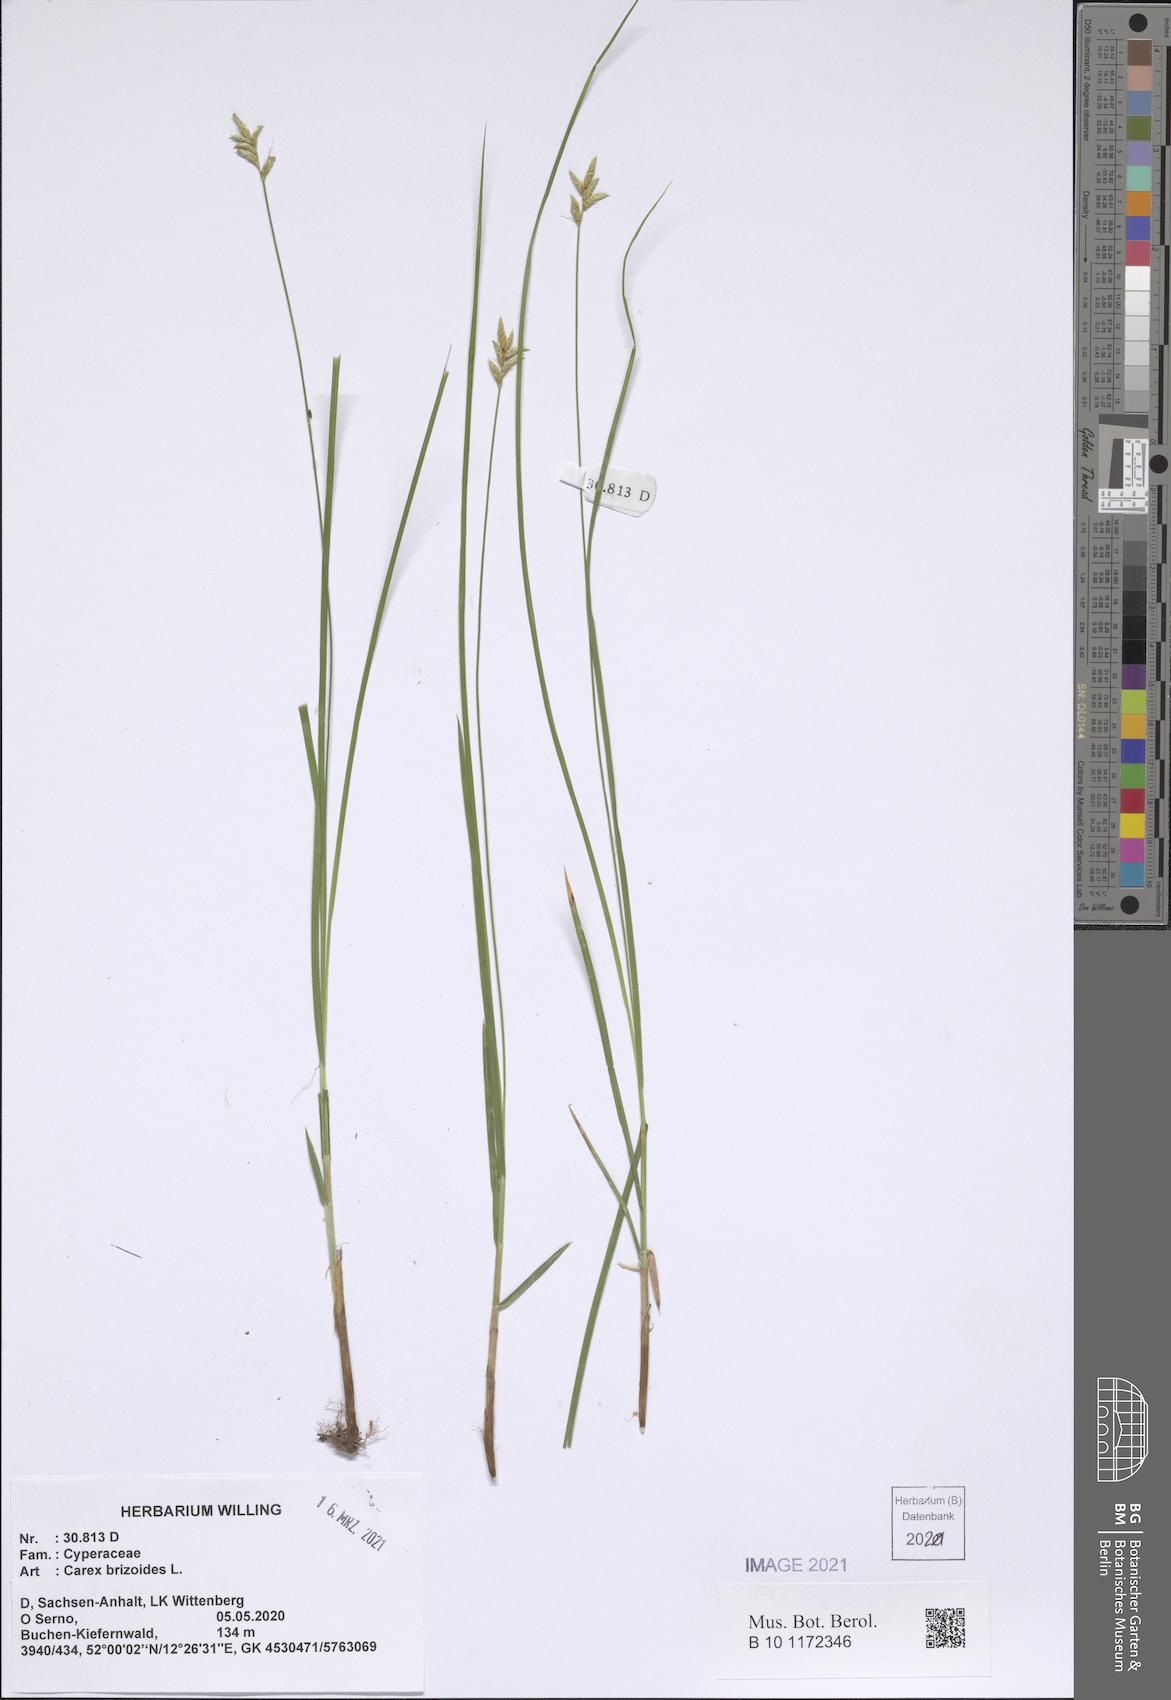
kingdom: Plantae
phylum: Tracheophyta
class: Liliopsida
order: Poales
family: Cyperaceae
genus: Carex
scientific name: Carex brizoides
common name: Quaking-grass sedge
